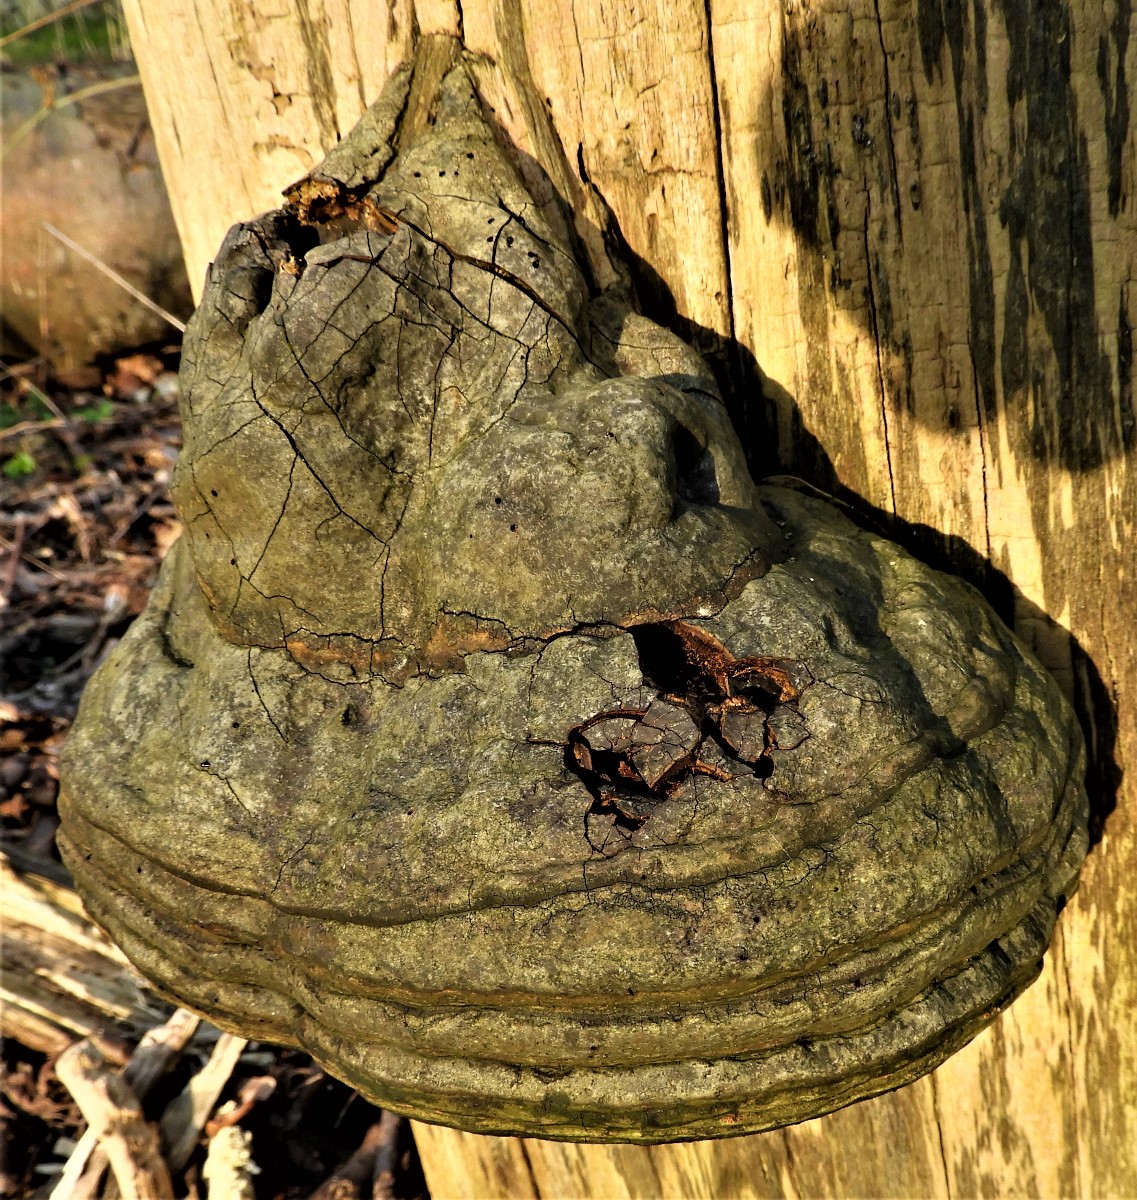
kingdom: Fungi
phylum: Basidiomycota
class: Agaricomycetes
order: Polyporales
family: Polyporaceae
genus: Fomes
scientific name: Fomes fomentarius
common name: tøndersvamp
